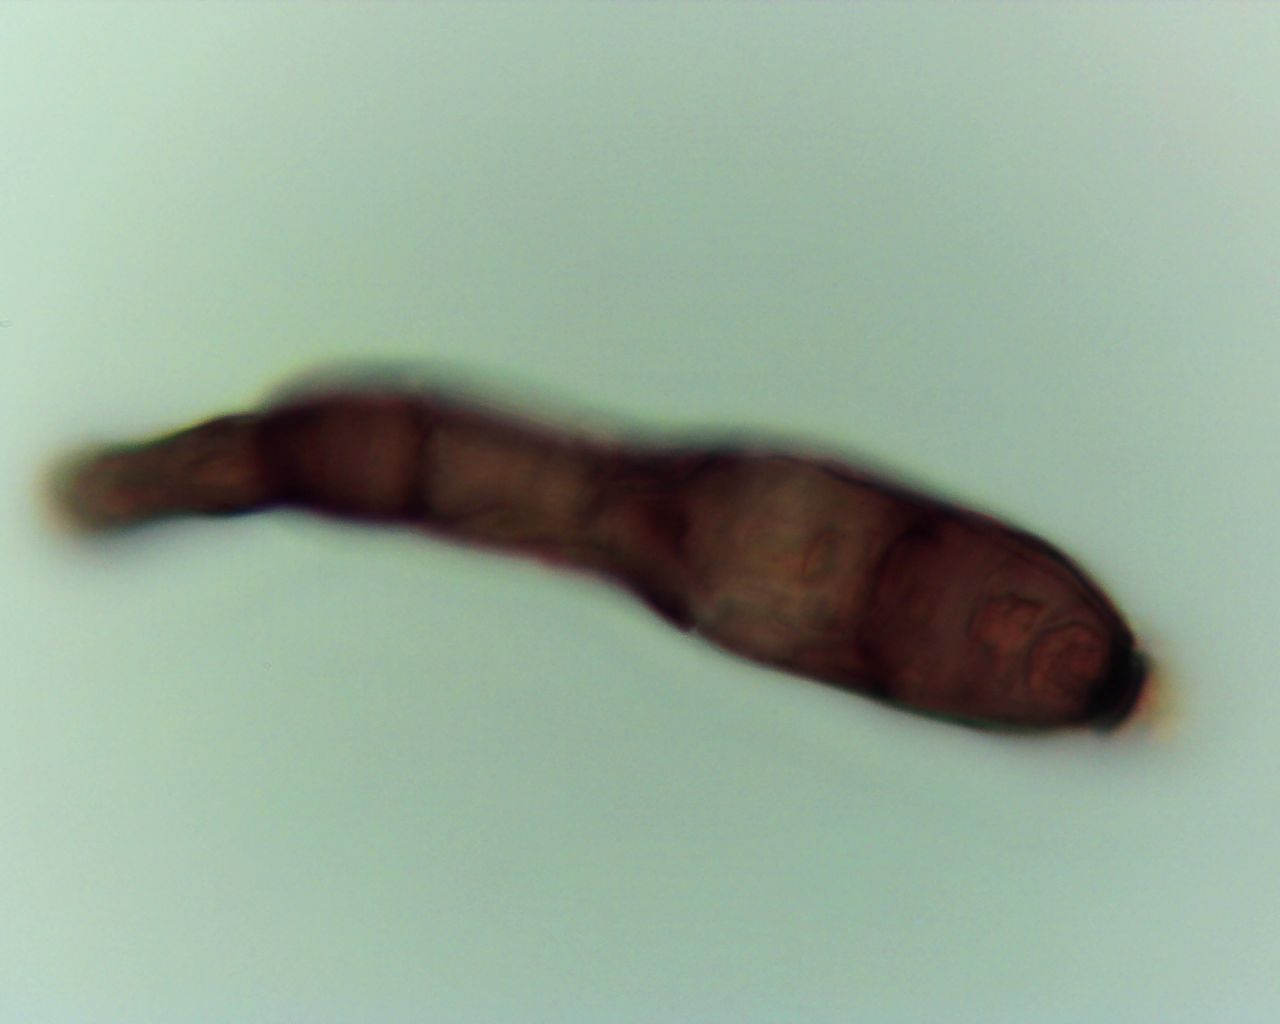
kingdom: Fungi
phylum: Ascomycota
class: Dothideomycetes
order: Pleosporales
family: Massarinaceae
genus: Helminthosporium
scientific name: Helminthosporium oligosporum
